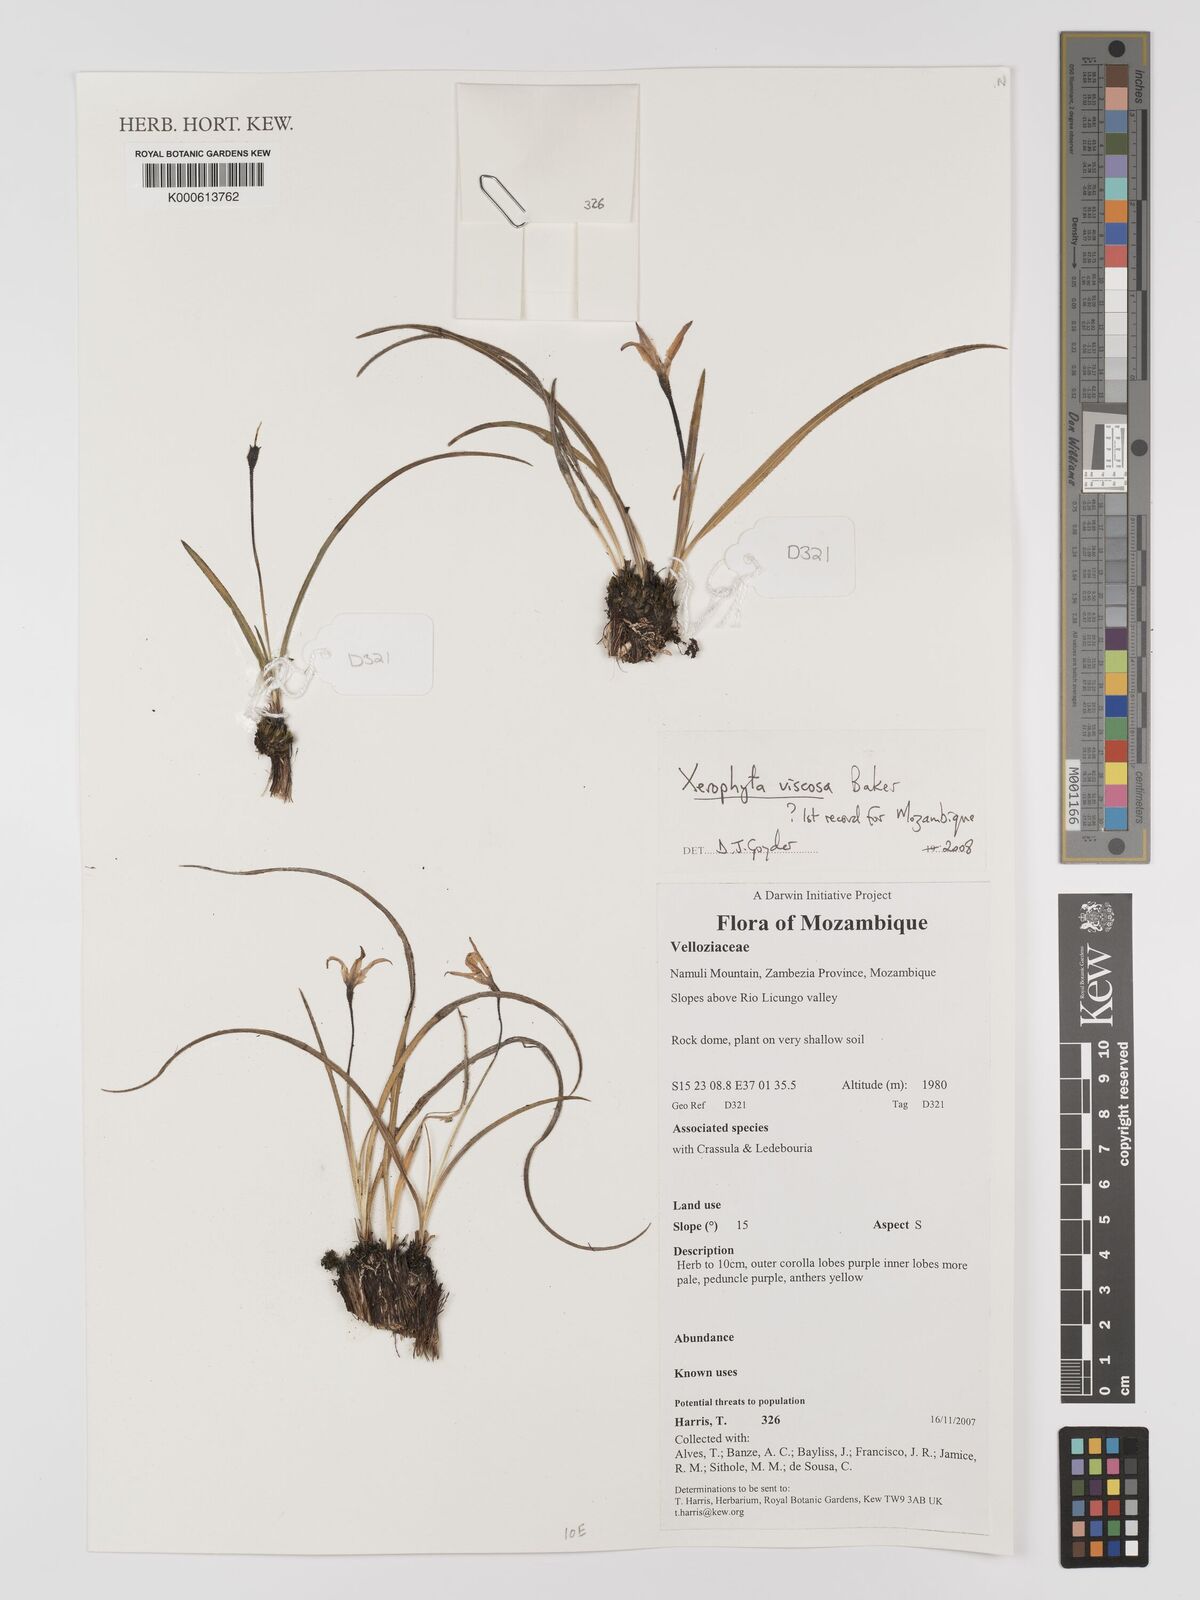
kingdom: Plantae
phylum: Tracheophyta
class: Liliopsida
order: Pandanales
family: Velloziaceae
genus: Xerophyta
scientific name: Xerophyta viscosa
